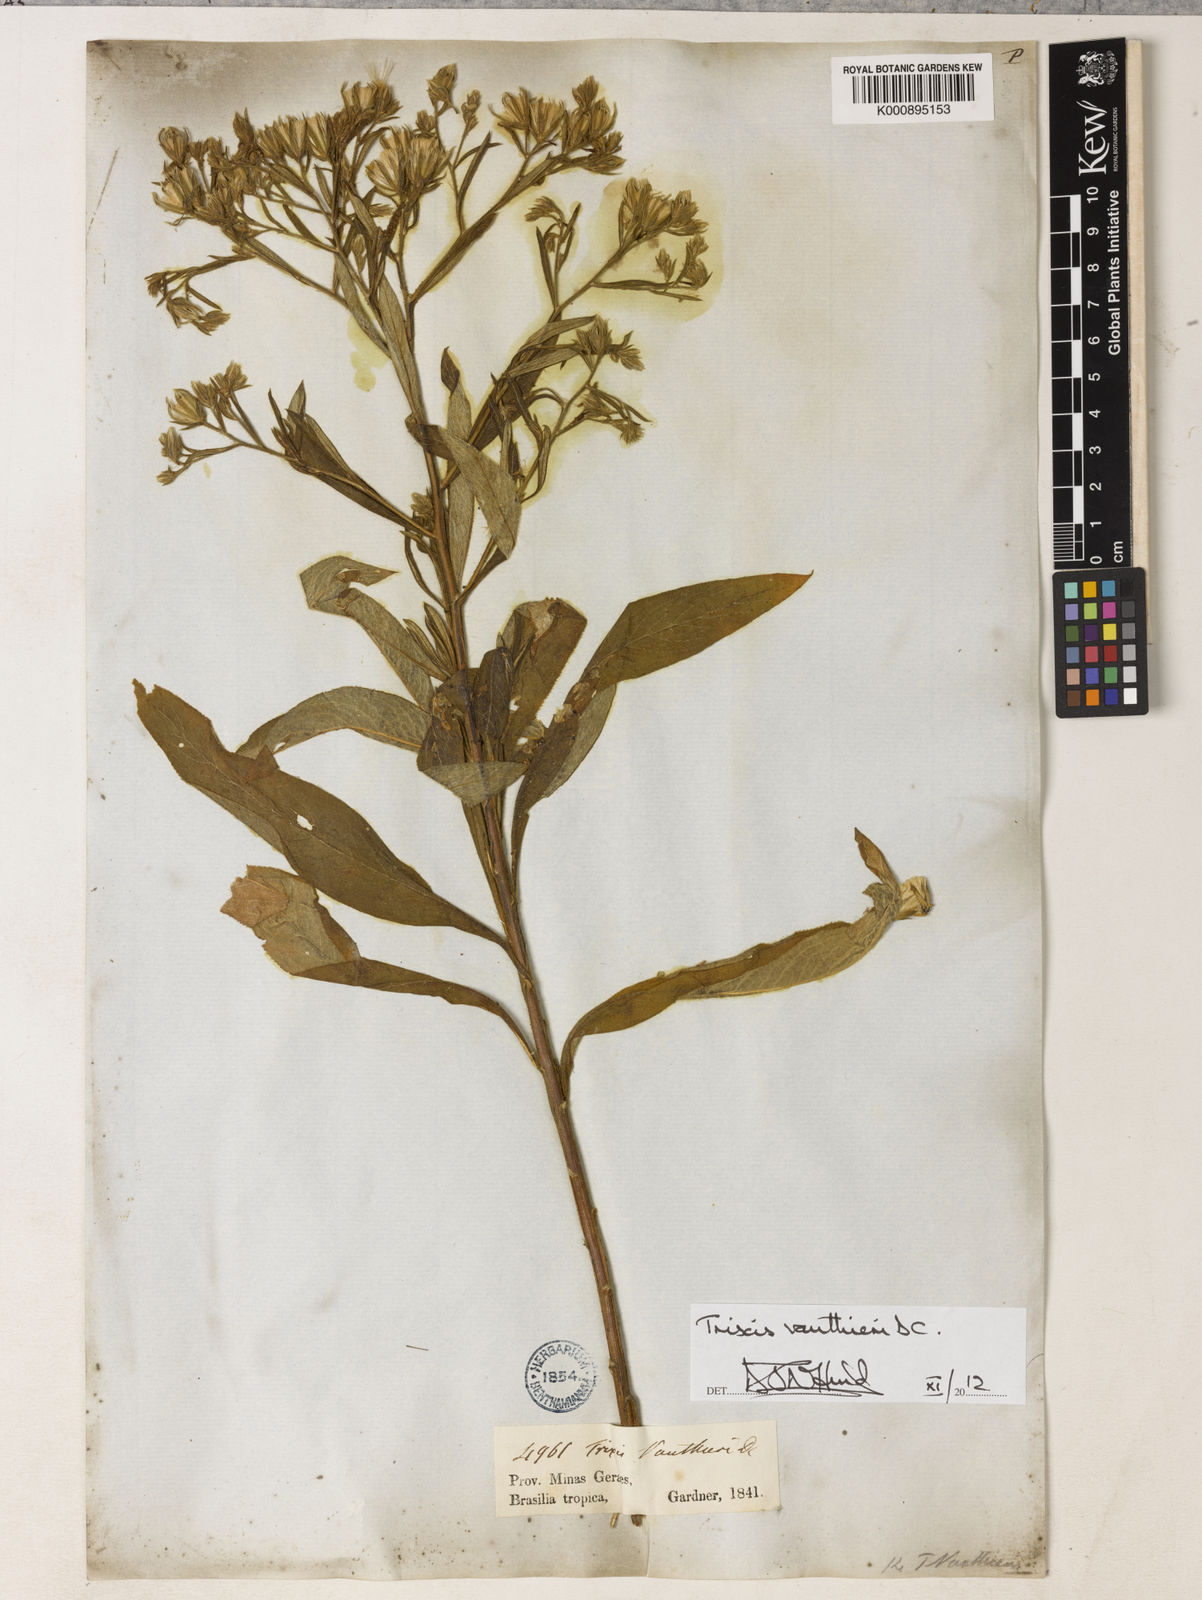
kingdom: Plantae
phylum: Tracheophyta
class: Magnoliopsida
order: Asterales
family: Asteraceae
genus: Trixis
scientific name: Trixis vauthieri
